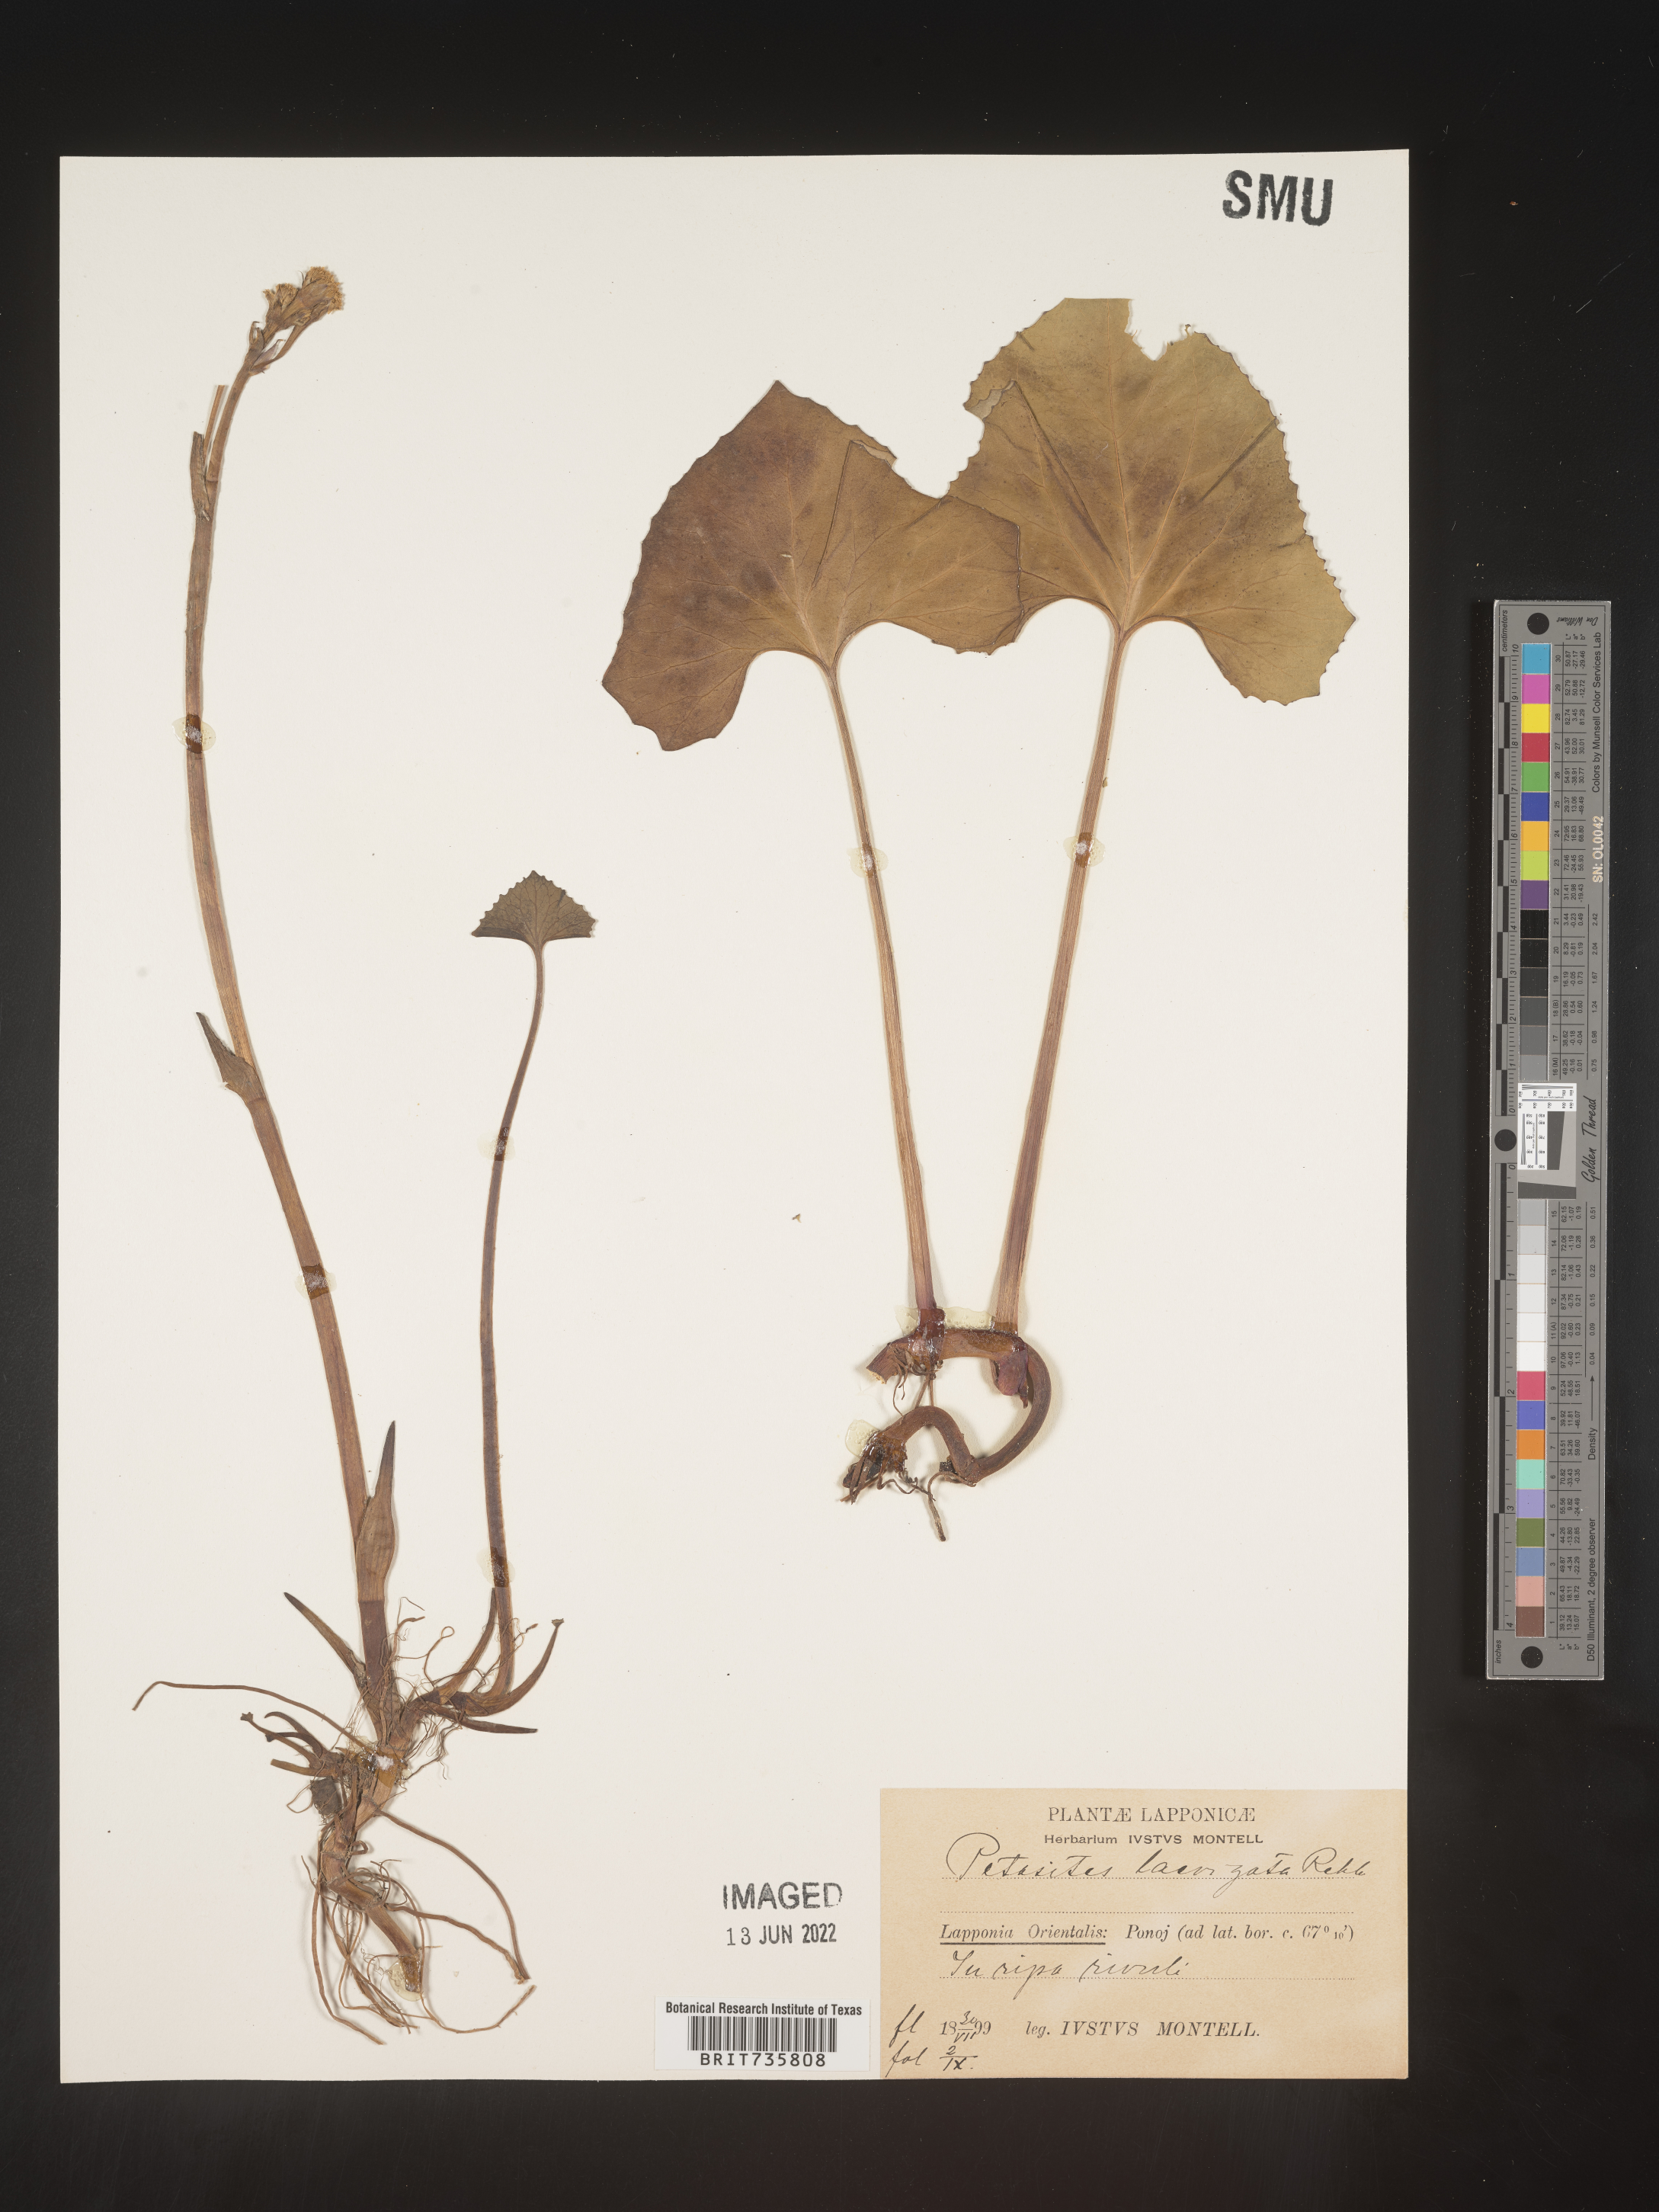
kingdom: Plantae
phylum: Tracheophyta
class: Magnoliopsida
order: Asterales
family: Asteraceae
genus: Petasites
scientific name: Petasites
